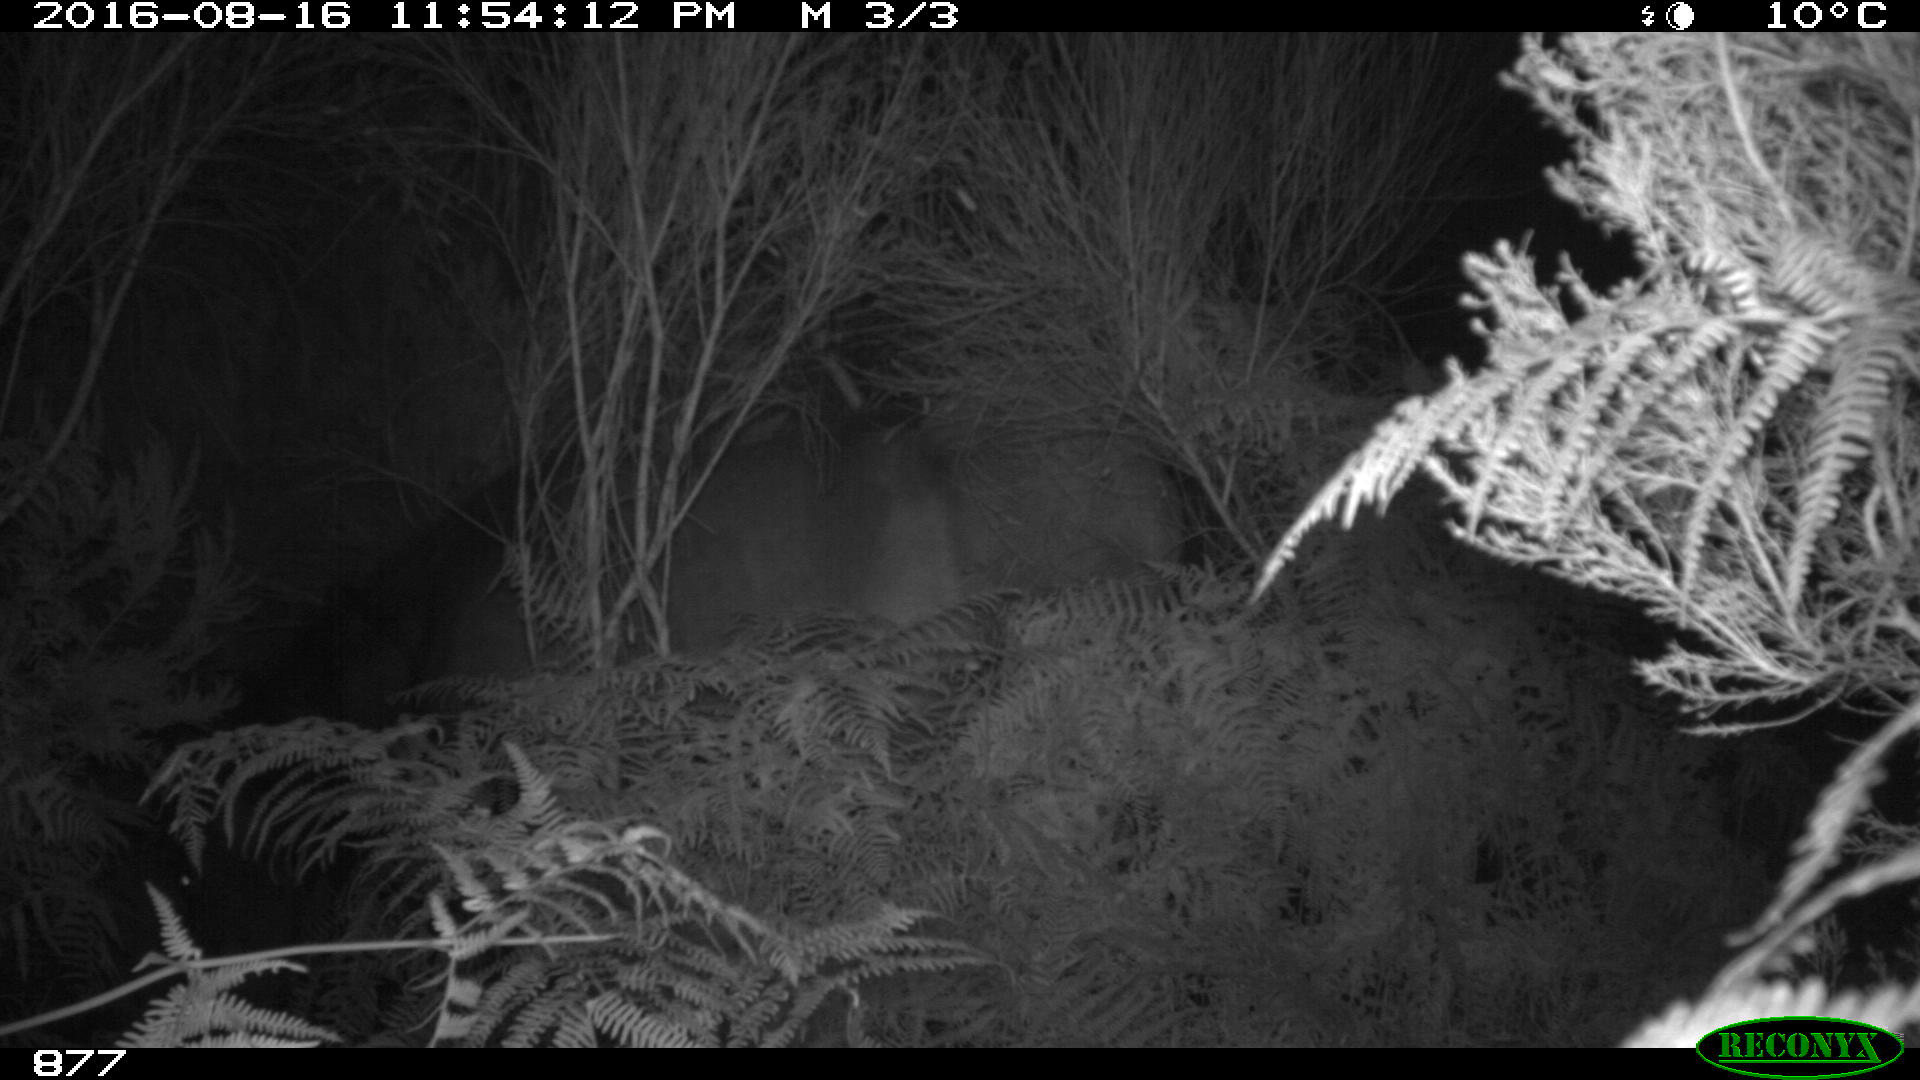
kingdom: Animalia
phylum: Chordata
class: Mammalia
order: Perissodactyla
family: Equidae
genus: Equus
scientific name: Equus caballus
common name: Horse
